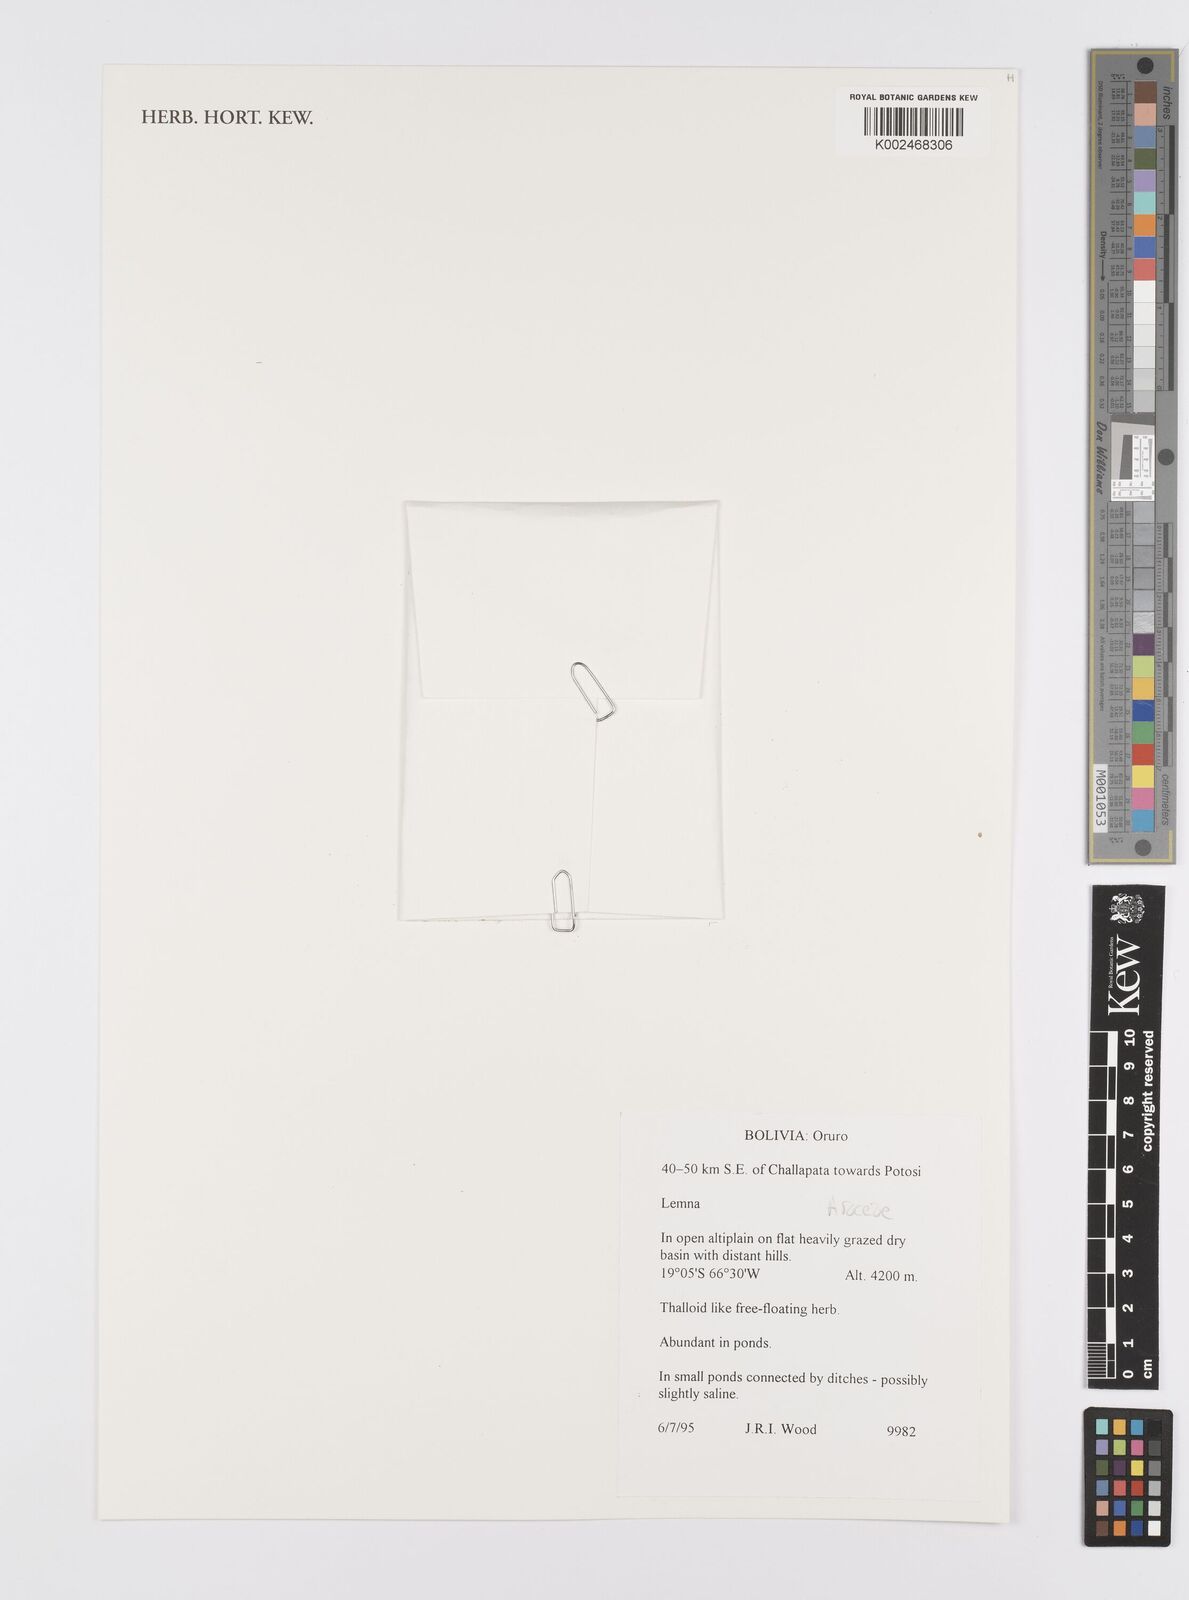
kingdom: Plantae
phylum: Tracheophyta
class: Liliopsida
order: Alismatales
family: Araceae
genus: Lemna
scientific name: Lemna
